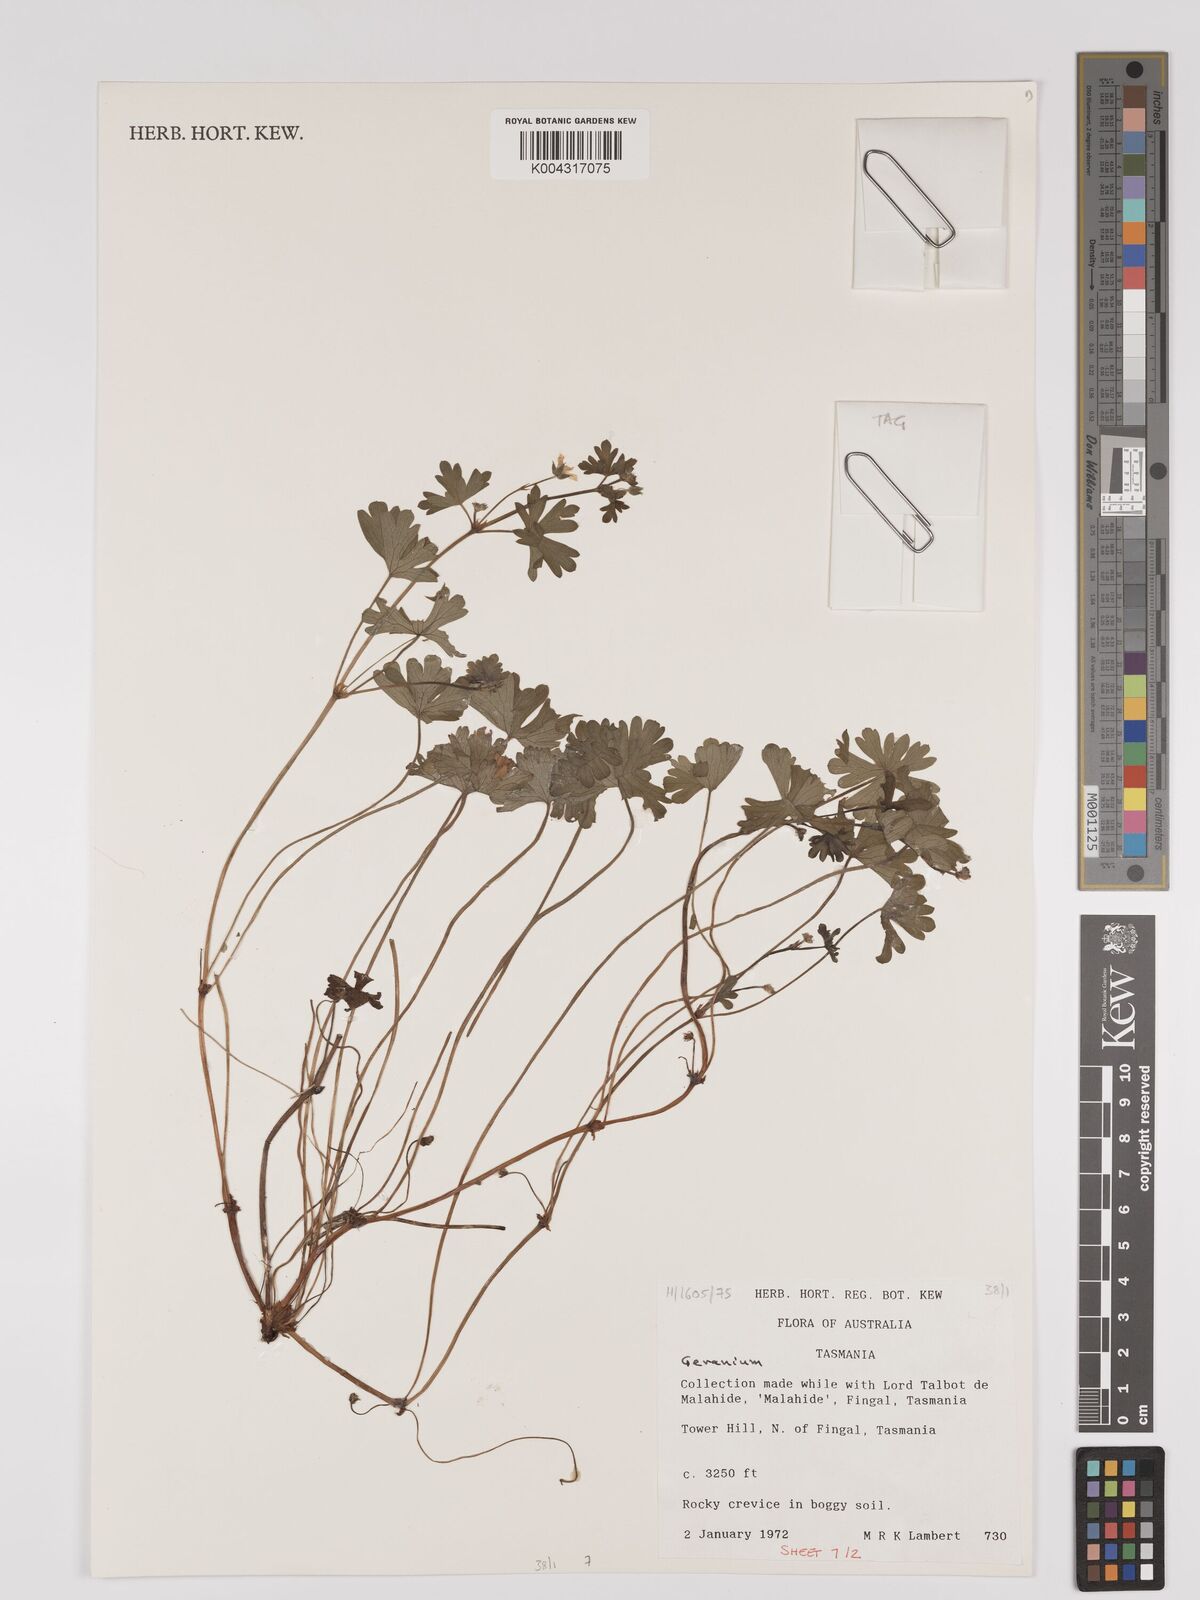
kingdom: Plantae
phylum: Tracheophyta
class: Magnoliopsida
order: Geraniales
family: Geraniaceae
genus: Geranium
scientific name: Geranium
